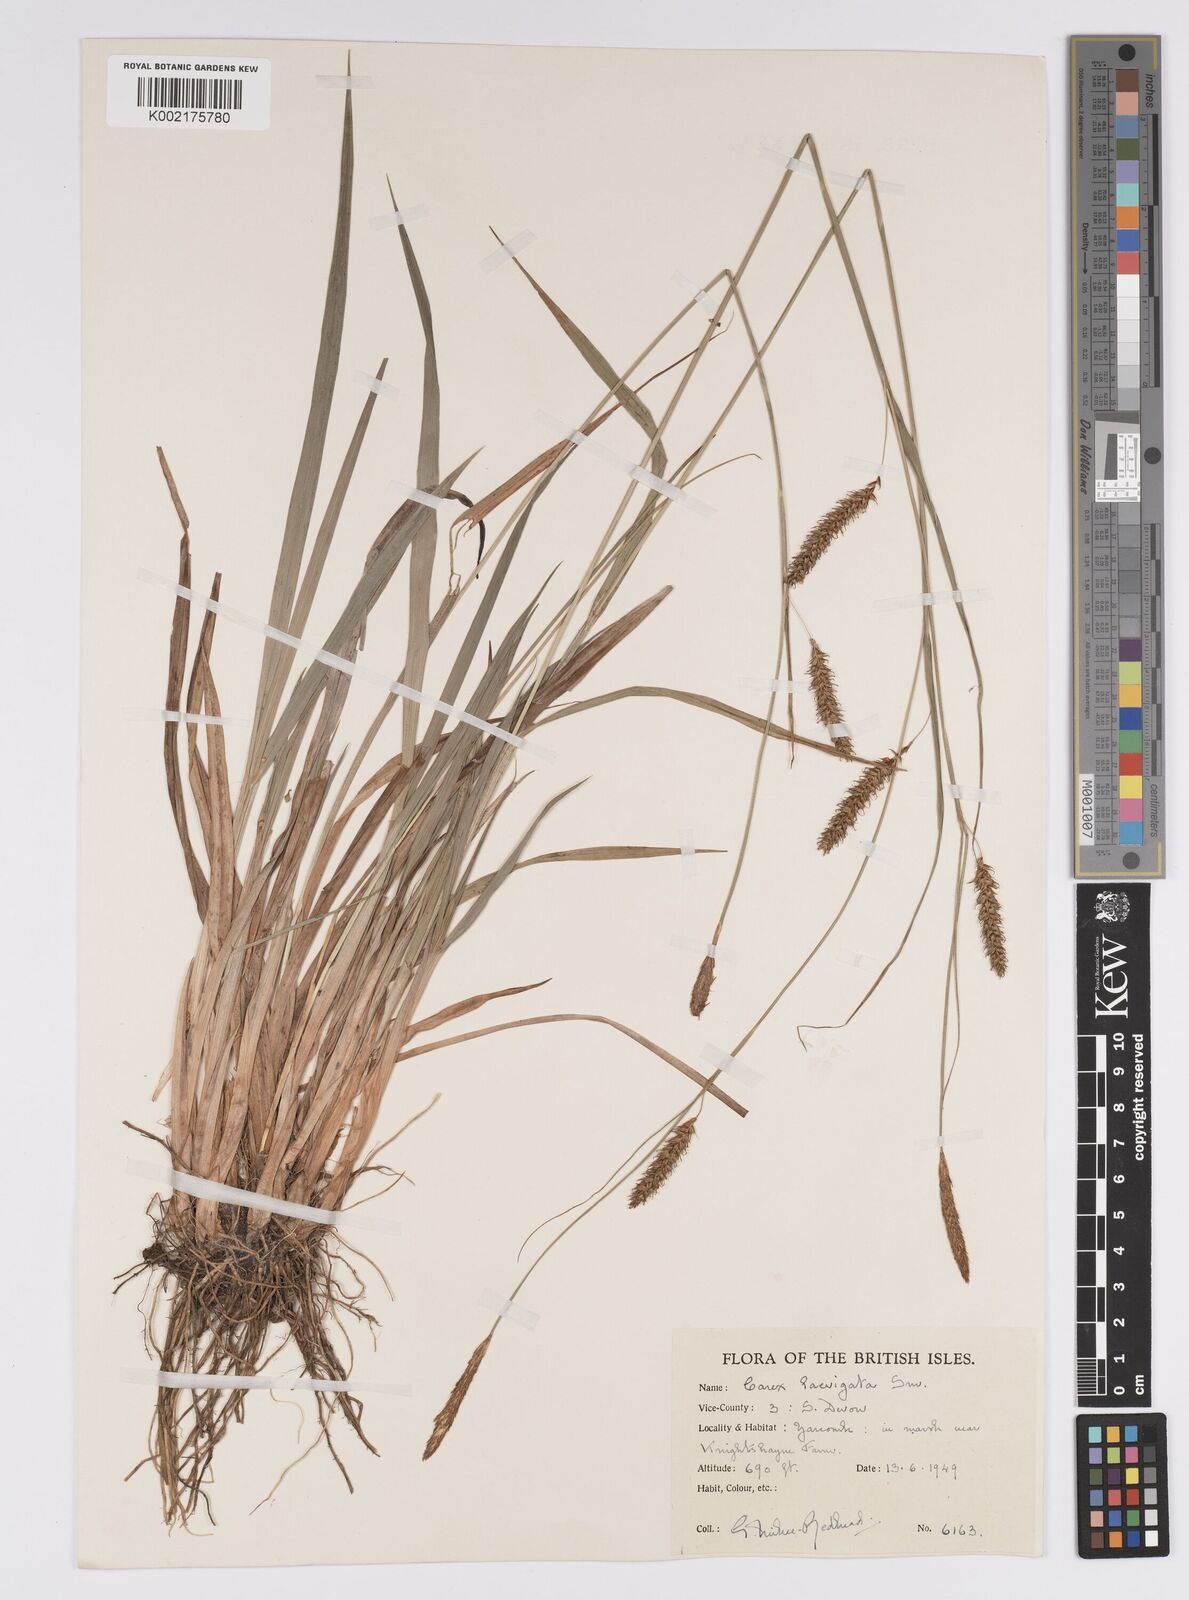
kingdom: Plantae
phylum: Tracheophyta
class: Liliopsida
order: Poales
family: Cyperaceae
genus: Carex
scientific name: Carex laevigata
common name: Smooth-stalked sedge
